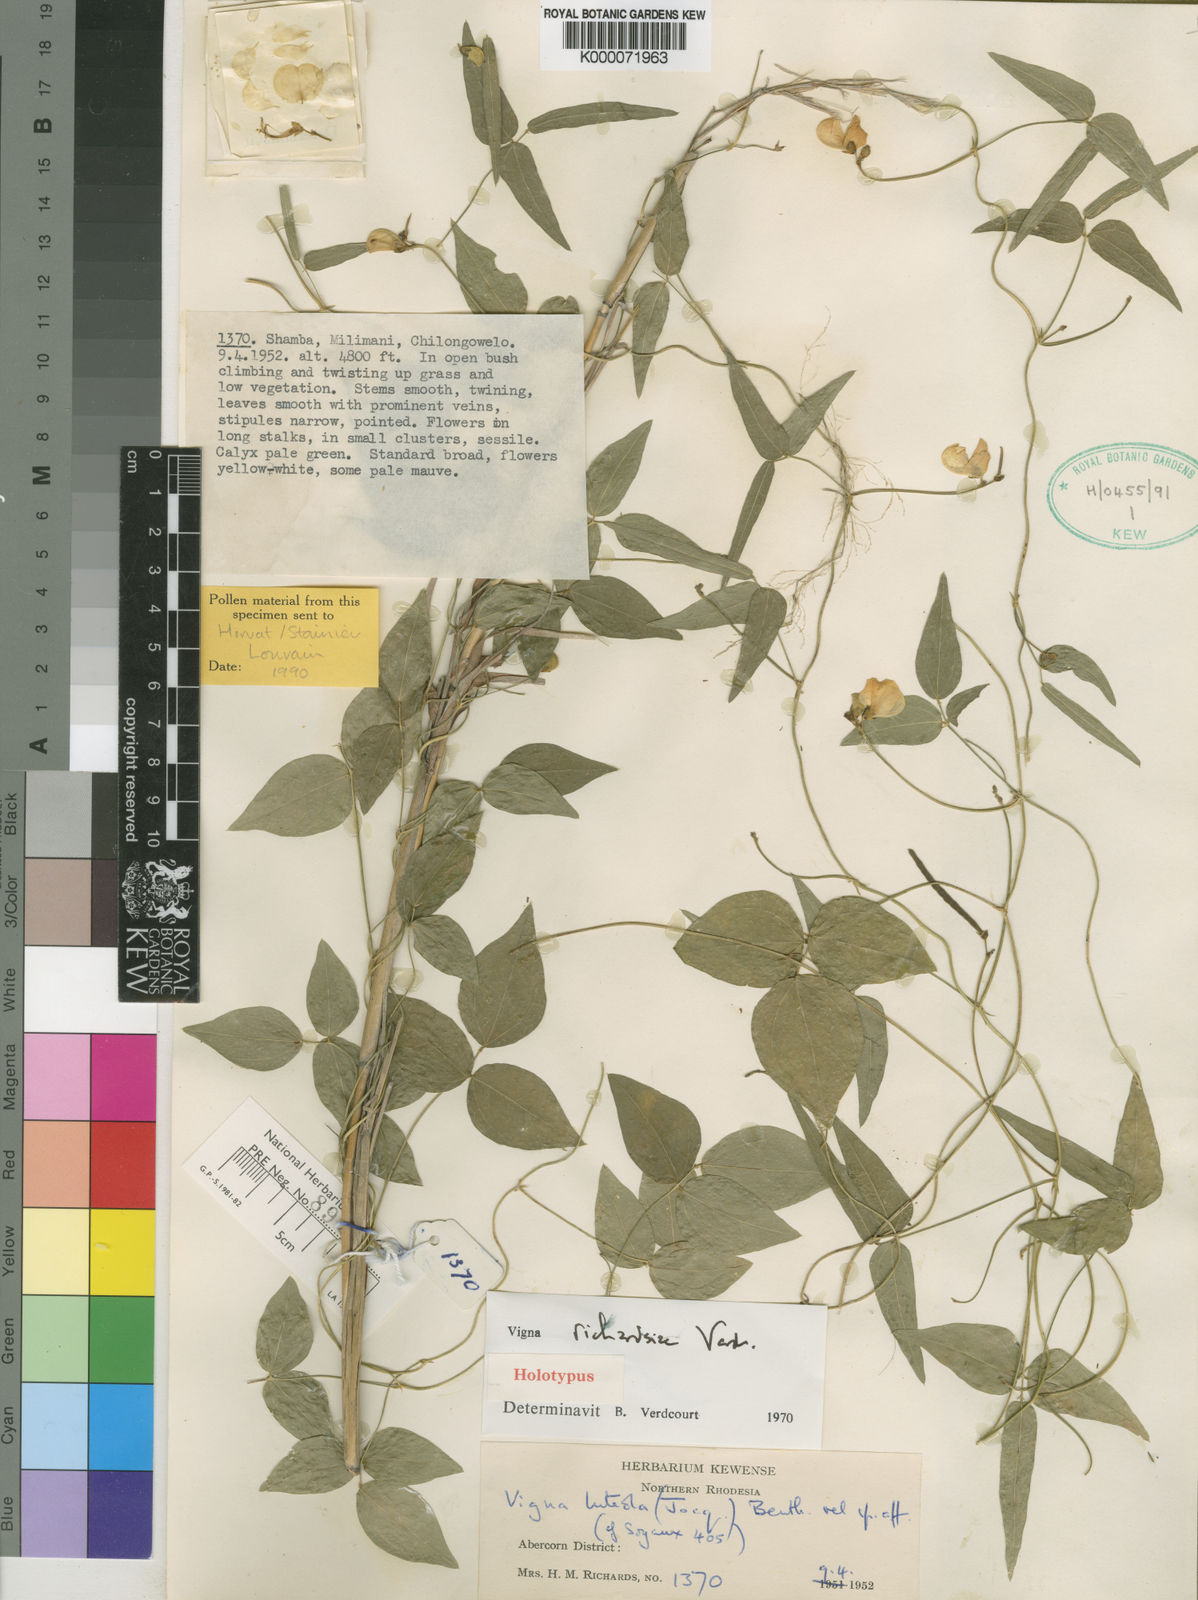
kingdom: Plantae
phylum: Tracheophyta
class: Magnoliopsida
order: Fabales
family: Fabaceae
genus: Vigna
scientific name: Vigna richardsiae
